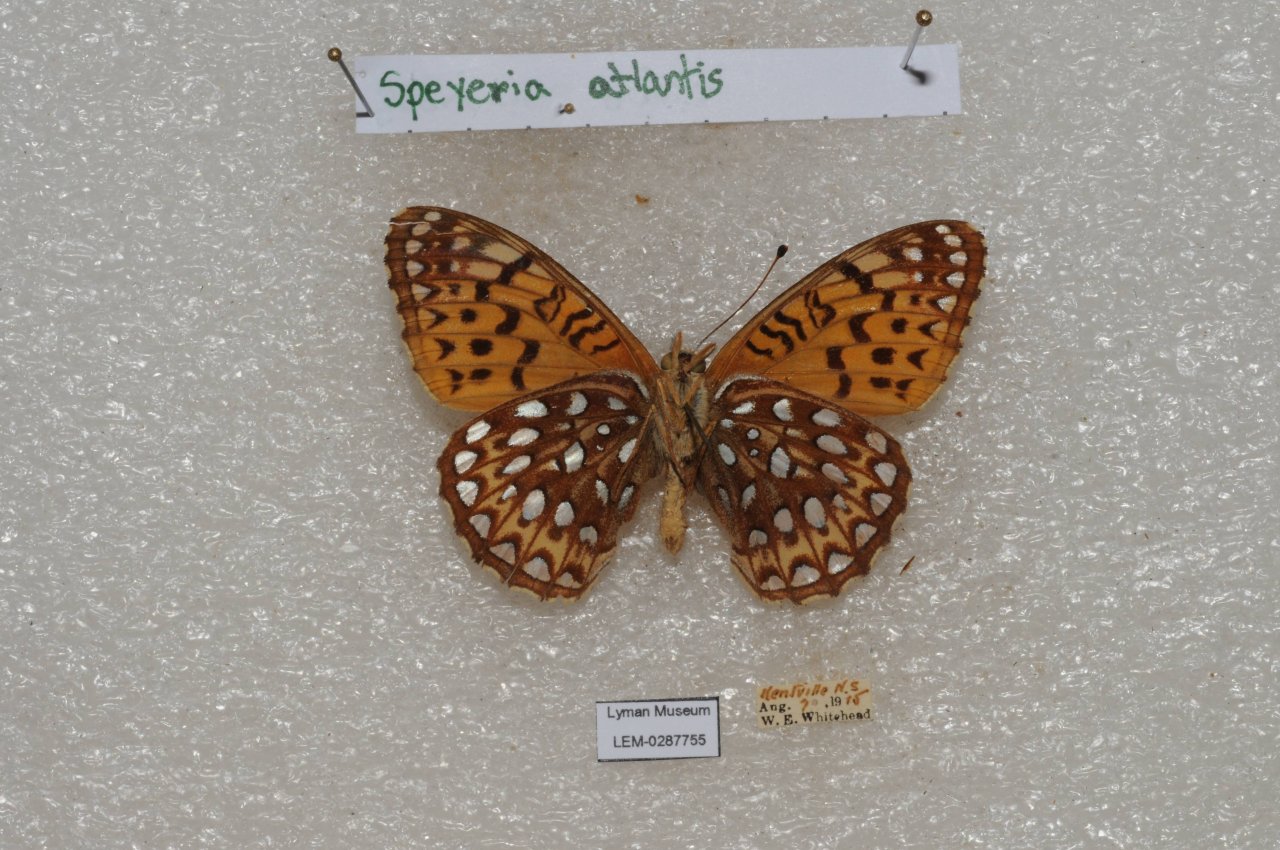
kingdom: Animalia
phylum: Arthropoda
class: Insecta
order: Lepidoptera
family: Nymphalidae
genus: Speyeria
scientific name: Speyeria atlantis
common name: Atlantis Fritillary
